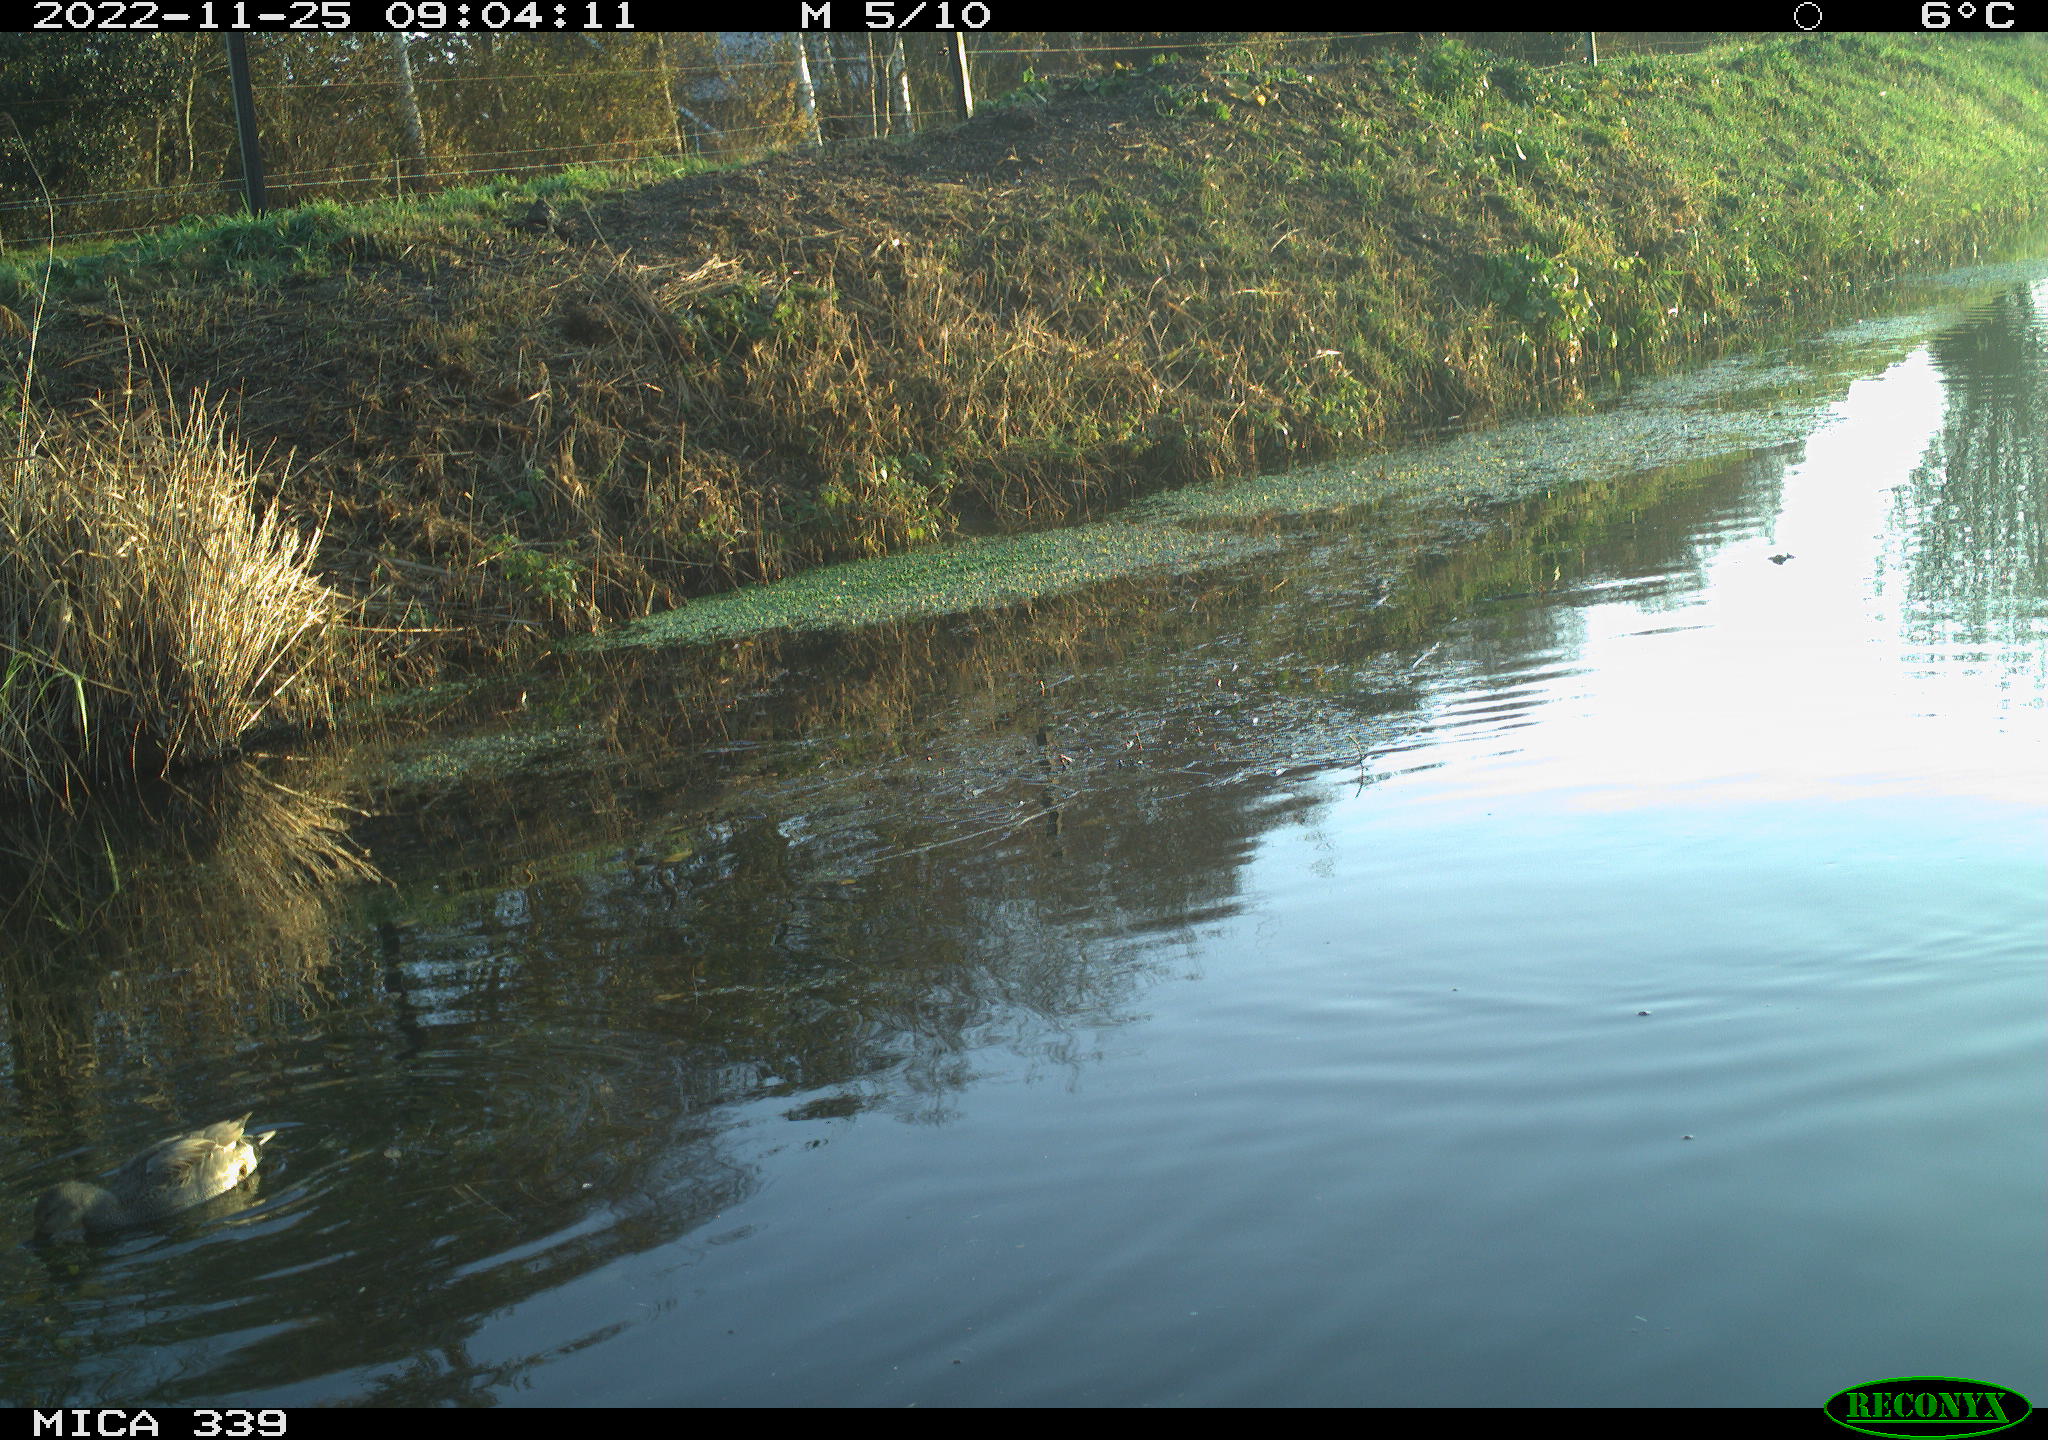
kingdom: Animalia
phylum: Chordata
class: Aves
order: Anseriformes
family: Anatidae
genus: Mareca
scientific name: Mareca strepera
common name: Gadwall
